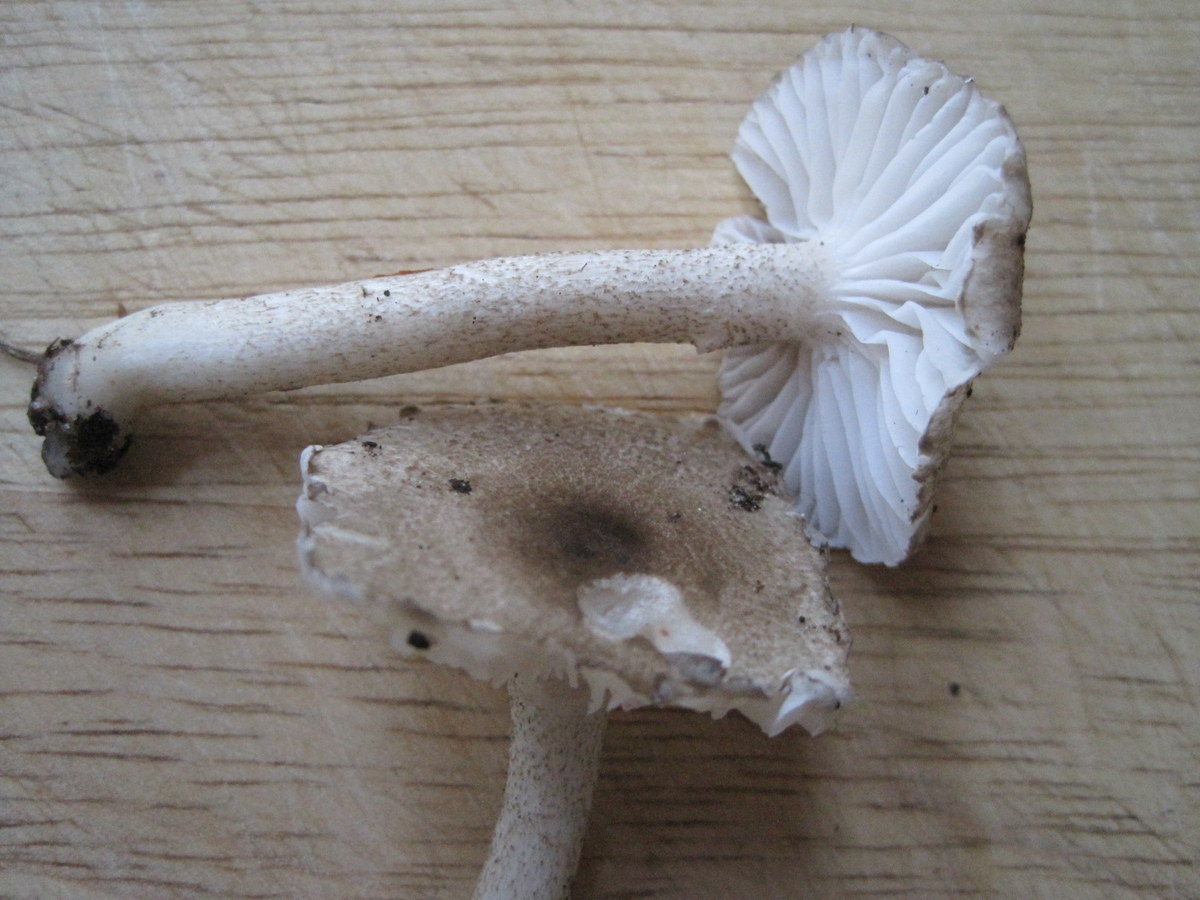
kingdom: Fungi
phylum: Basidiomycota
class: Agaricomycetes
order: Agaricales
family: Hygrophoraceae
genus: Hygrophorus
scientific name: Hygrophorus pustulatus
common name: mørkprikket sneglehat
